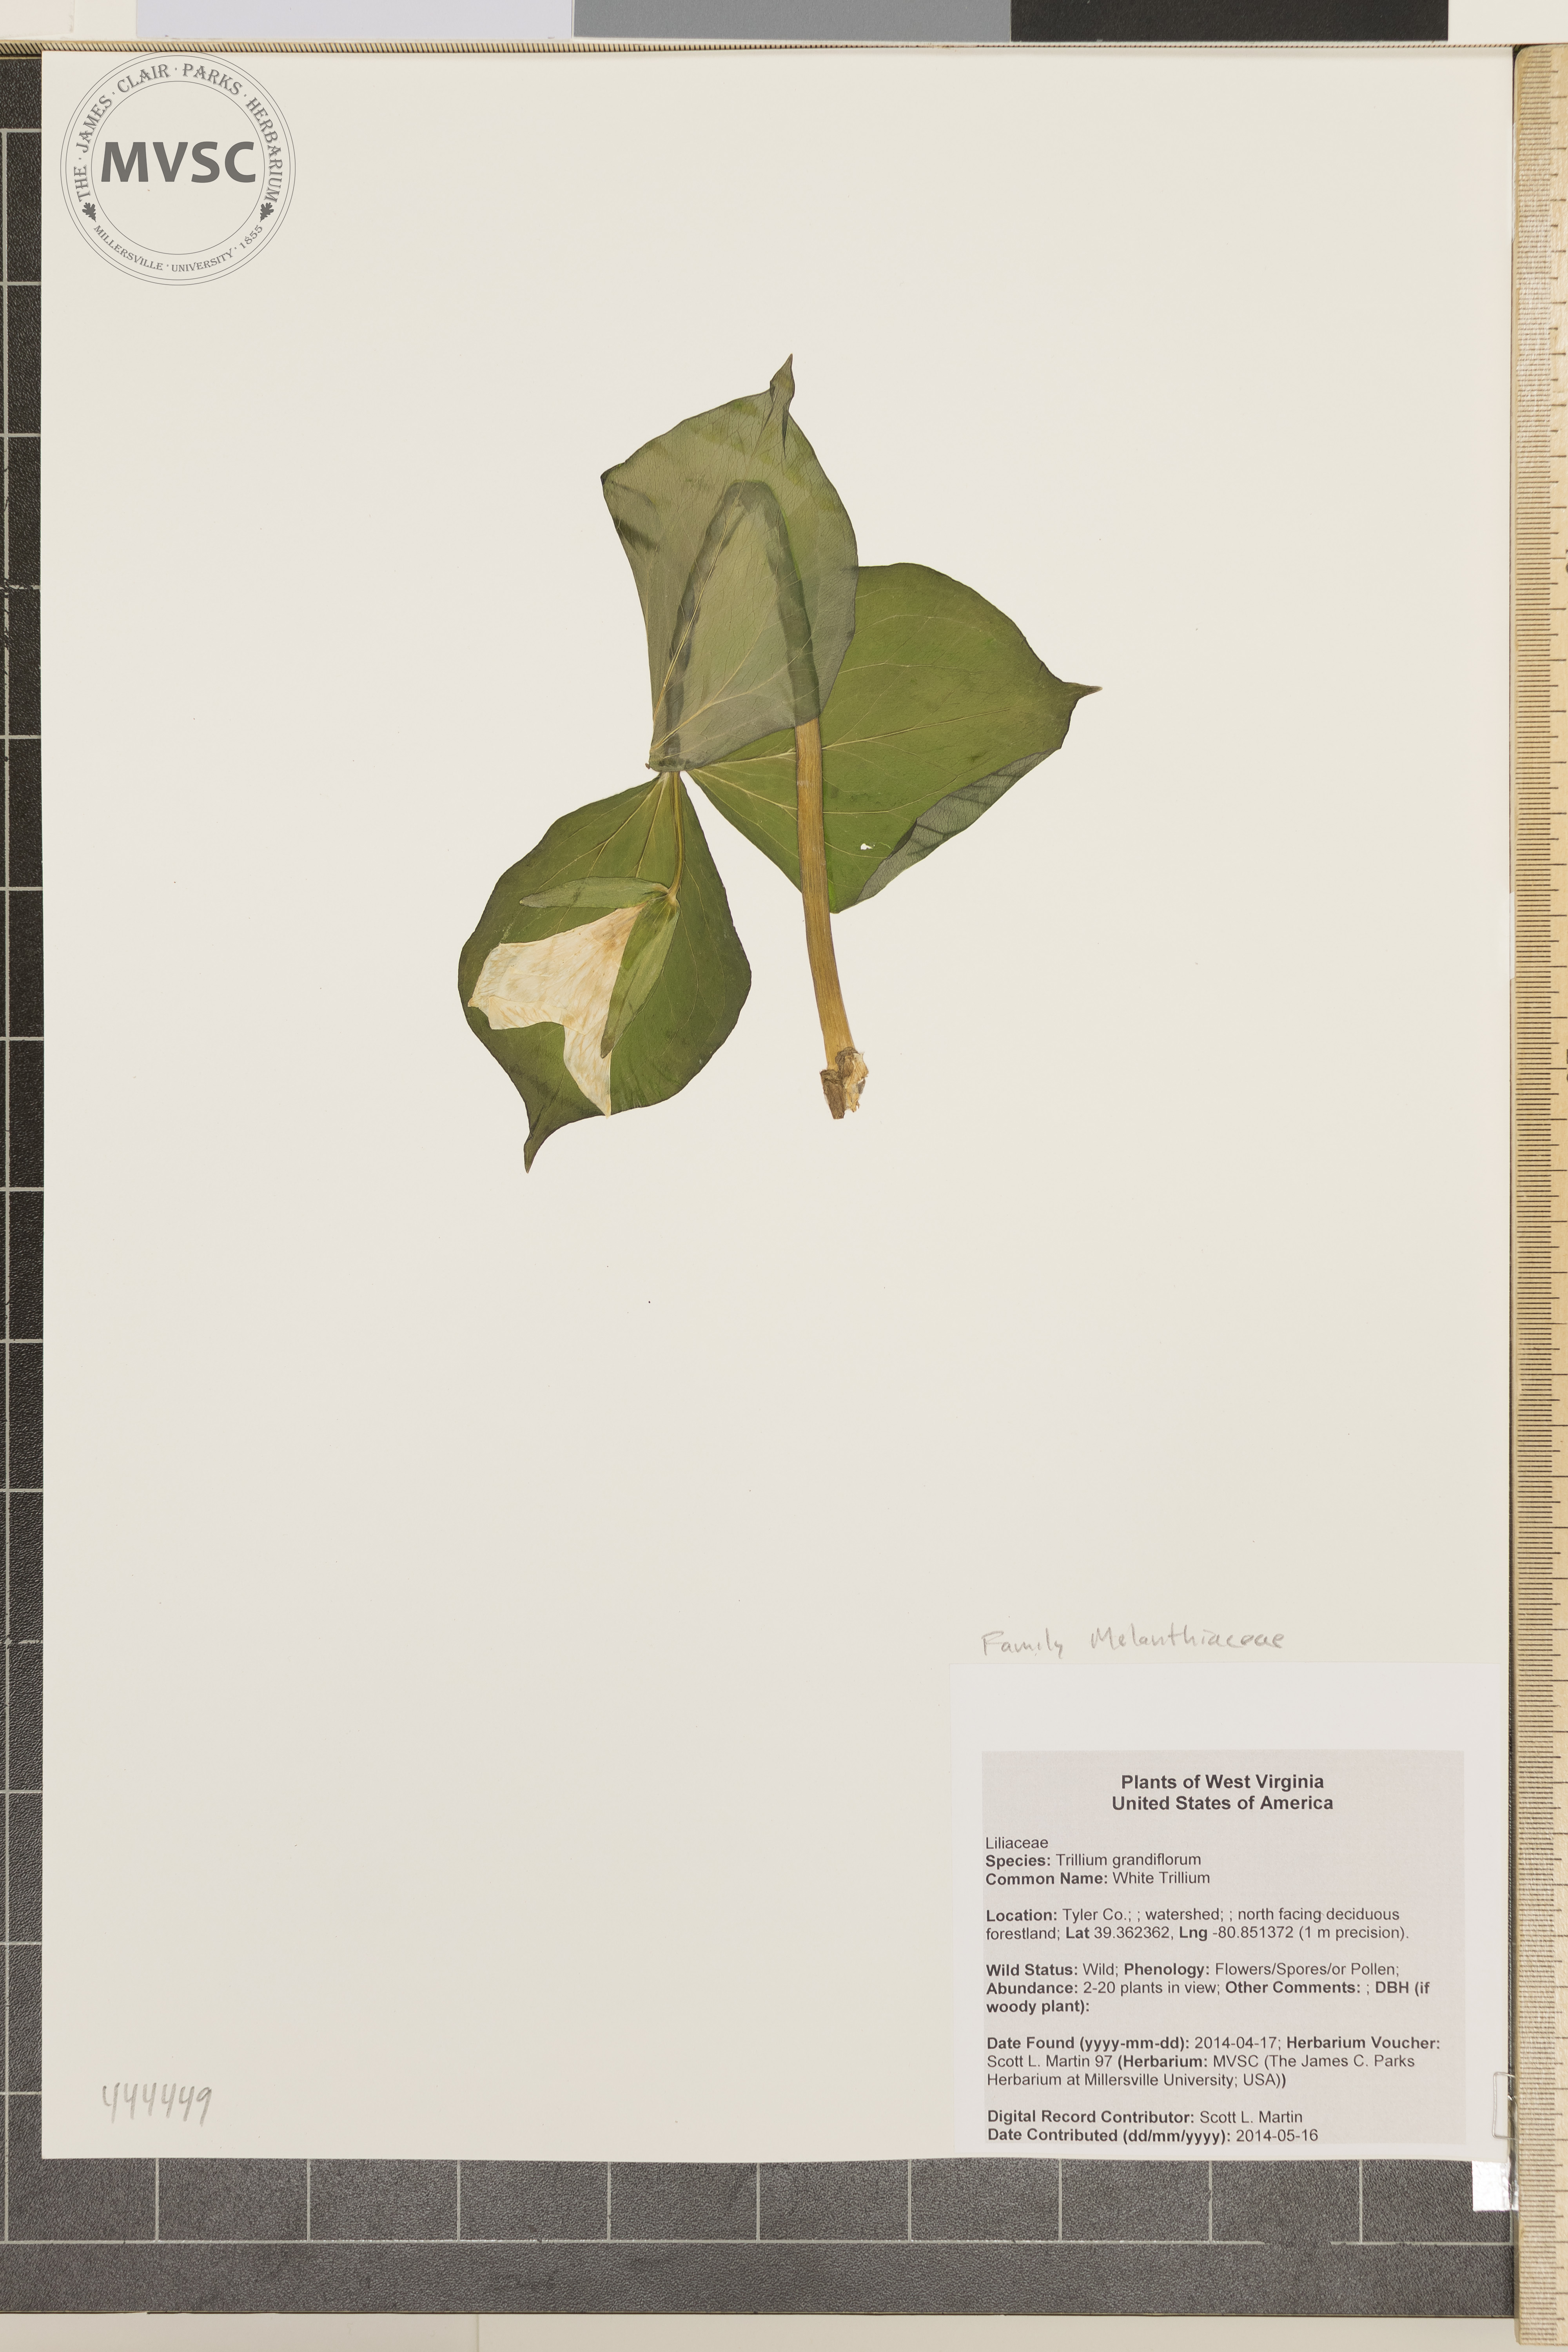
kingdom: Plantae
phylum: Tracheophyta
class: Liliopsida
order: Liliales
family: Melanthiaceae
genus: Trillium
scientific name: Trillium grandiflorum
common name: White Trillium
